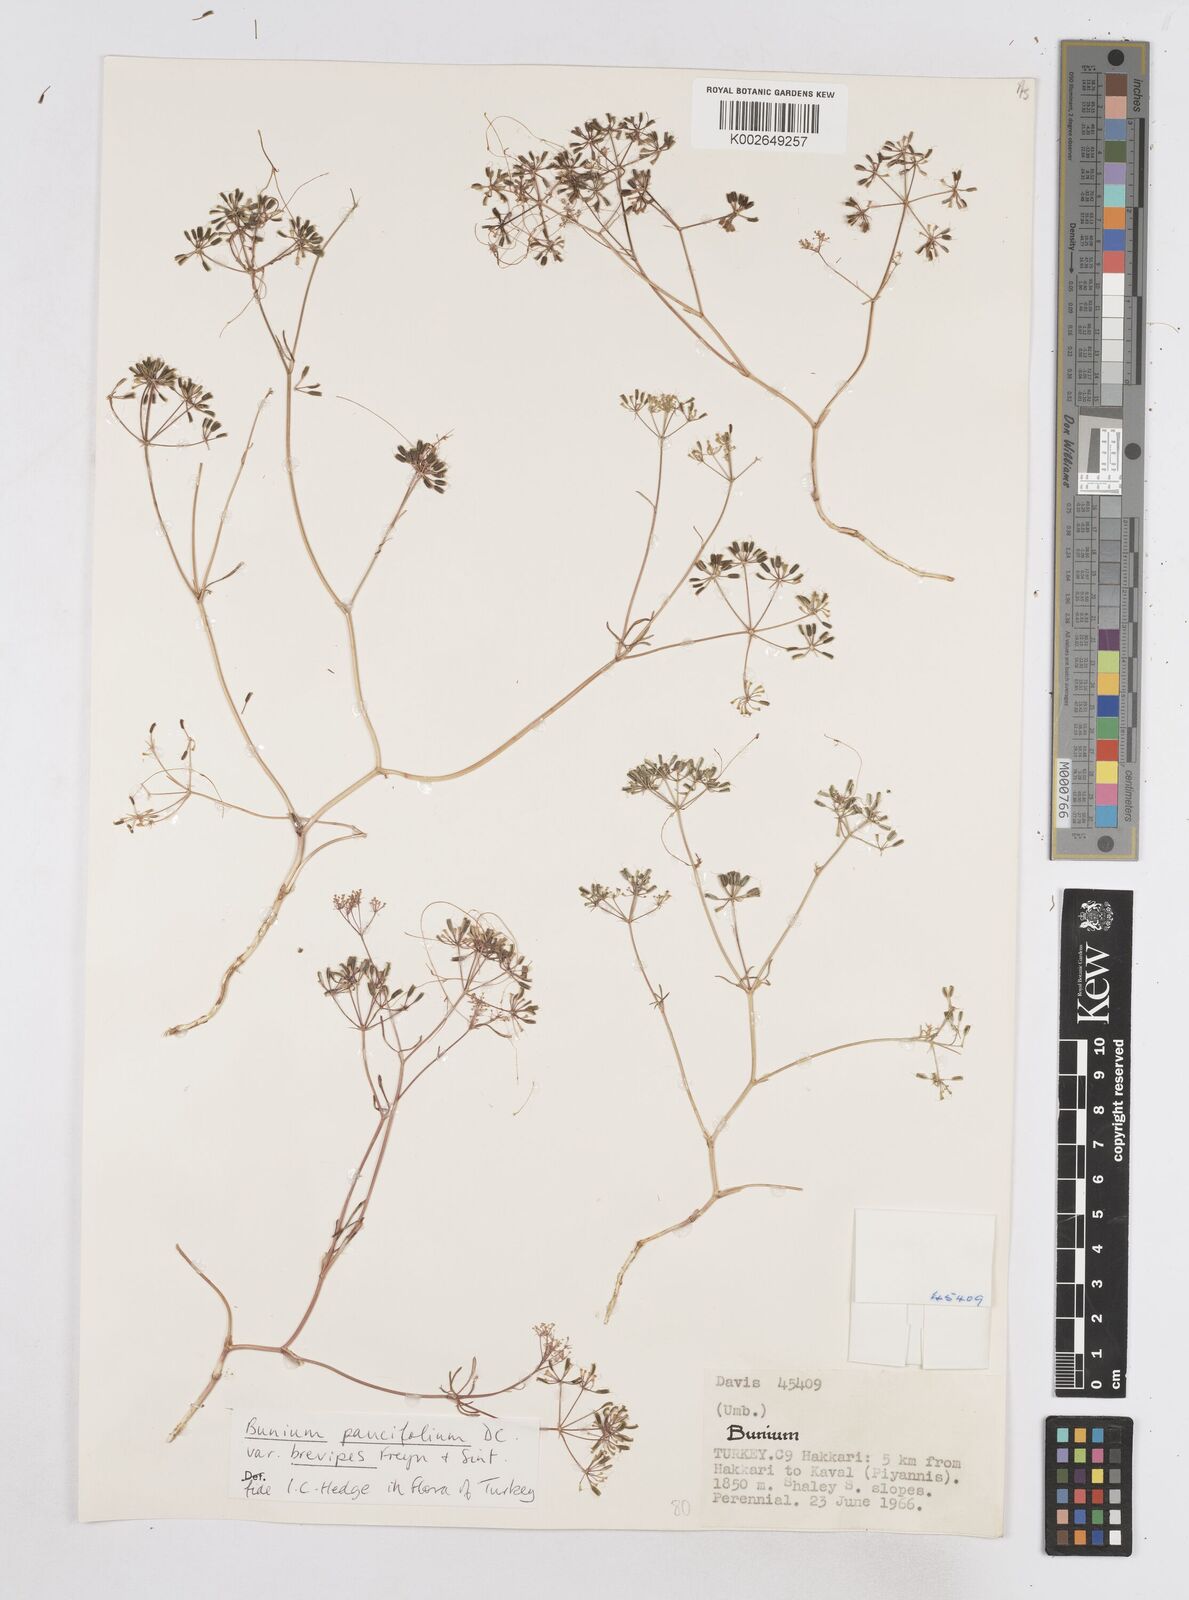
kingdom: Plantae
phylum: Tracheophyta
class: Magnoliopsida
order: Apiales
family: Apiaceae
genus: Bunium
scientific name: Bunium elegans
